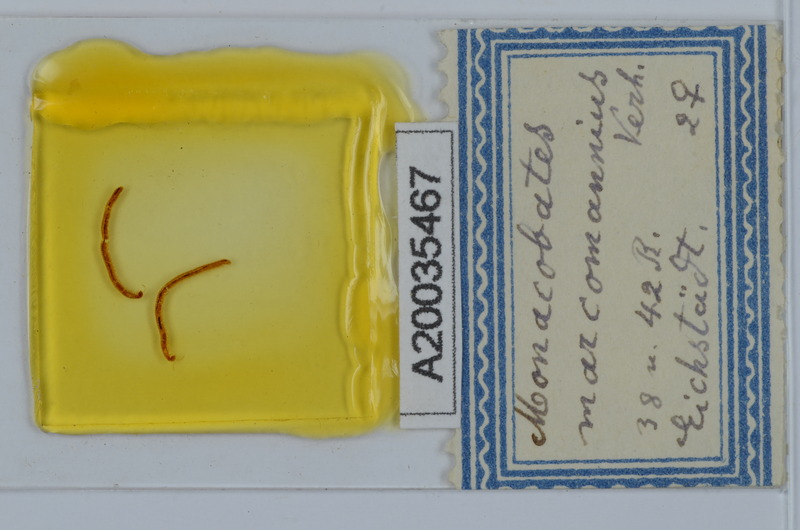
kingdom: Animalia
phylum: Arthropoda
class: Diplopoda
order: Julida
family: Blaniulidae
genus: Boreoiulus
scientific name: Boreoiulus tenuis
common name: Slender snake millipede
